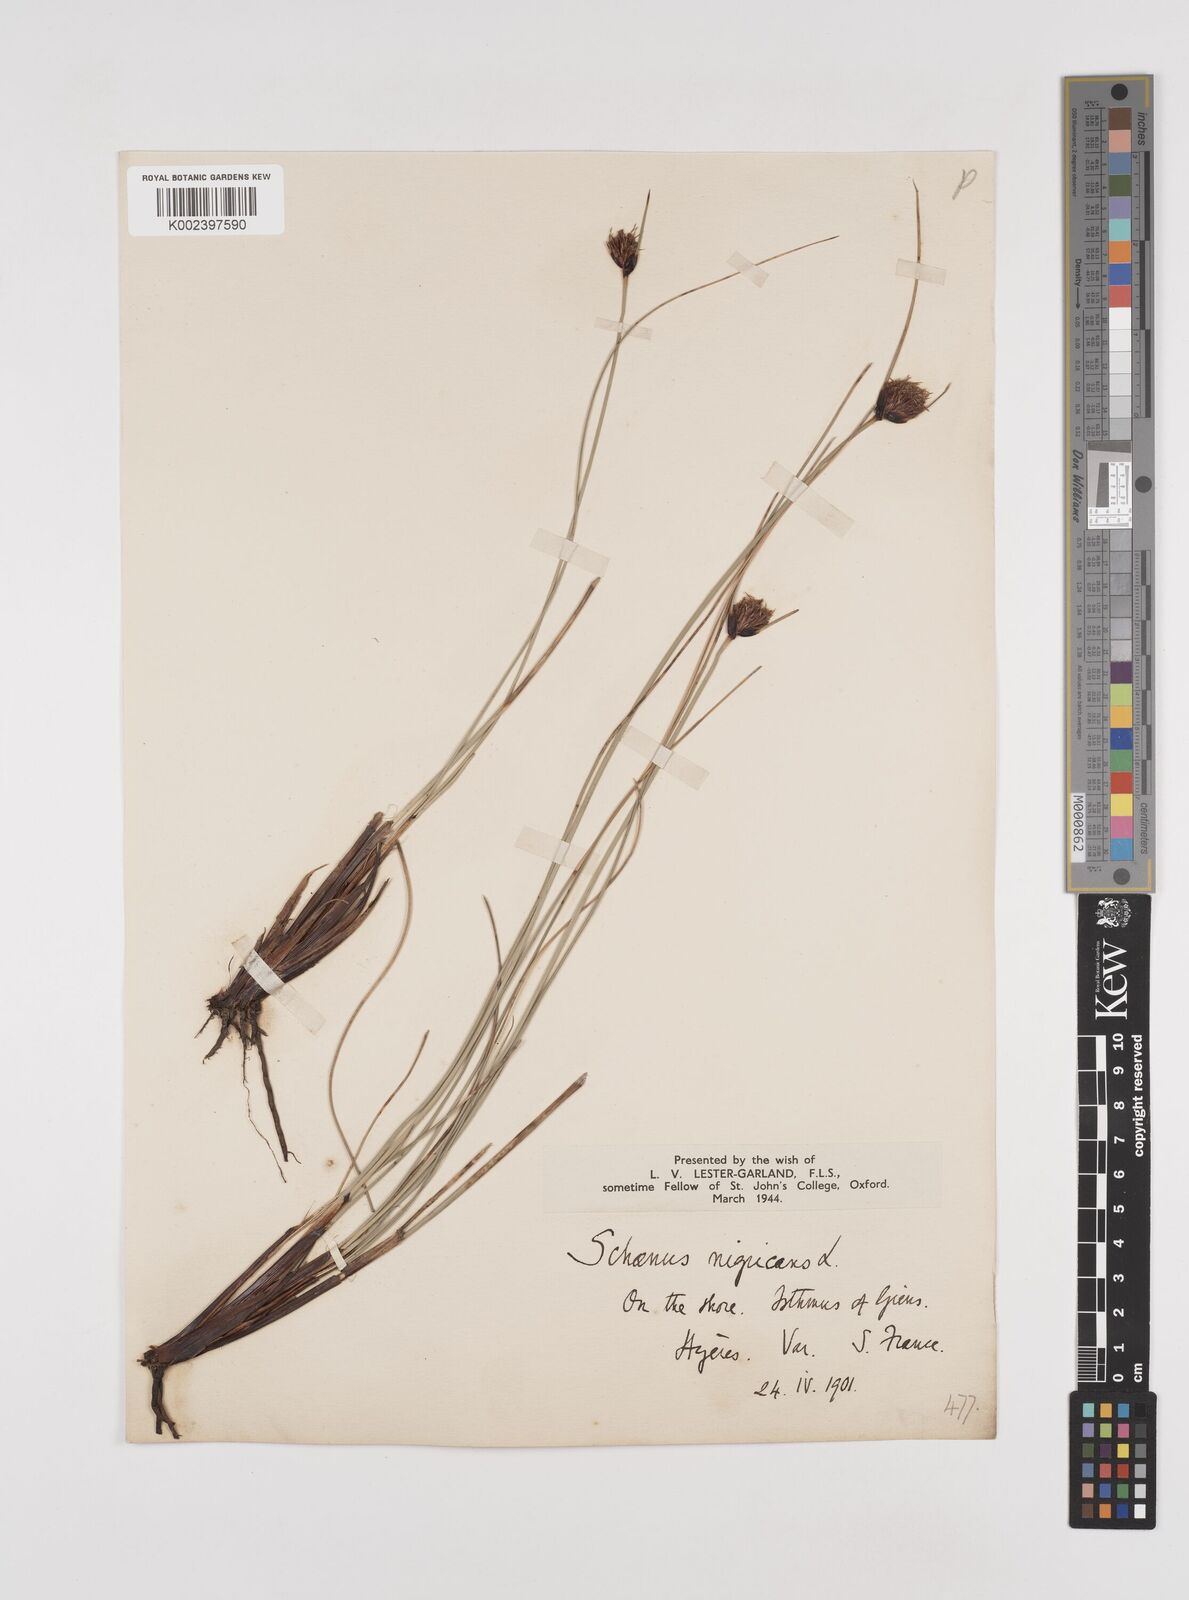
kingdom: Plantae
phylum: Tracheophyta
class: Liliopsida
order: Poales
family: Cyperaceae
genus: Schoenus
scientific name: Schoenus nigricans
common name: Black bog-rush
